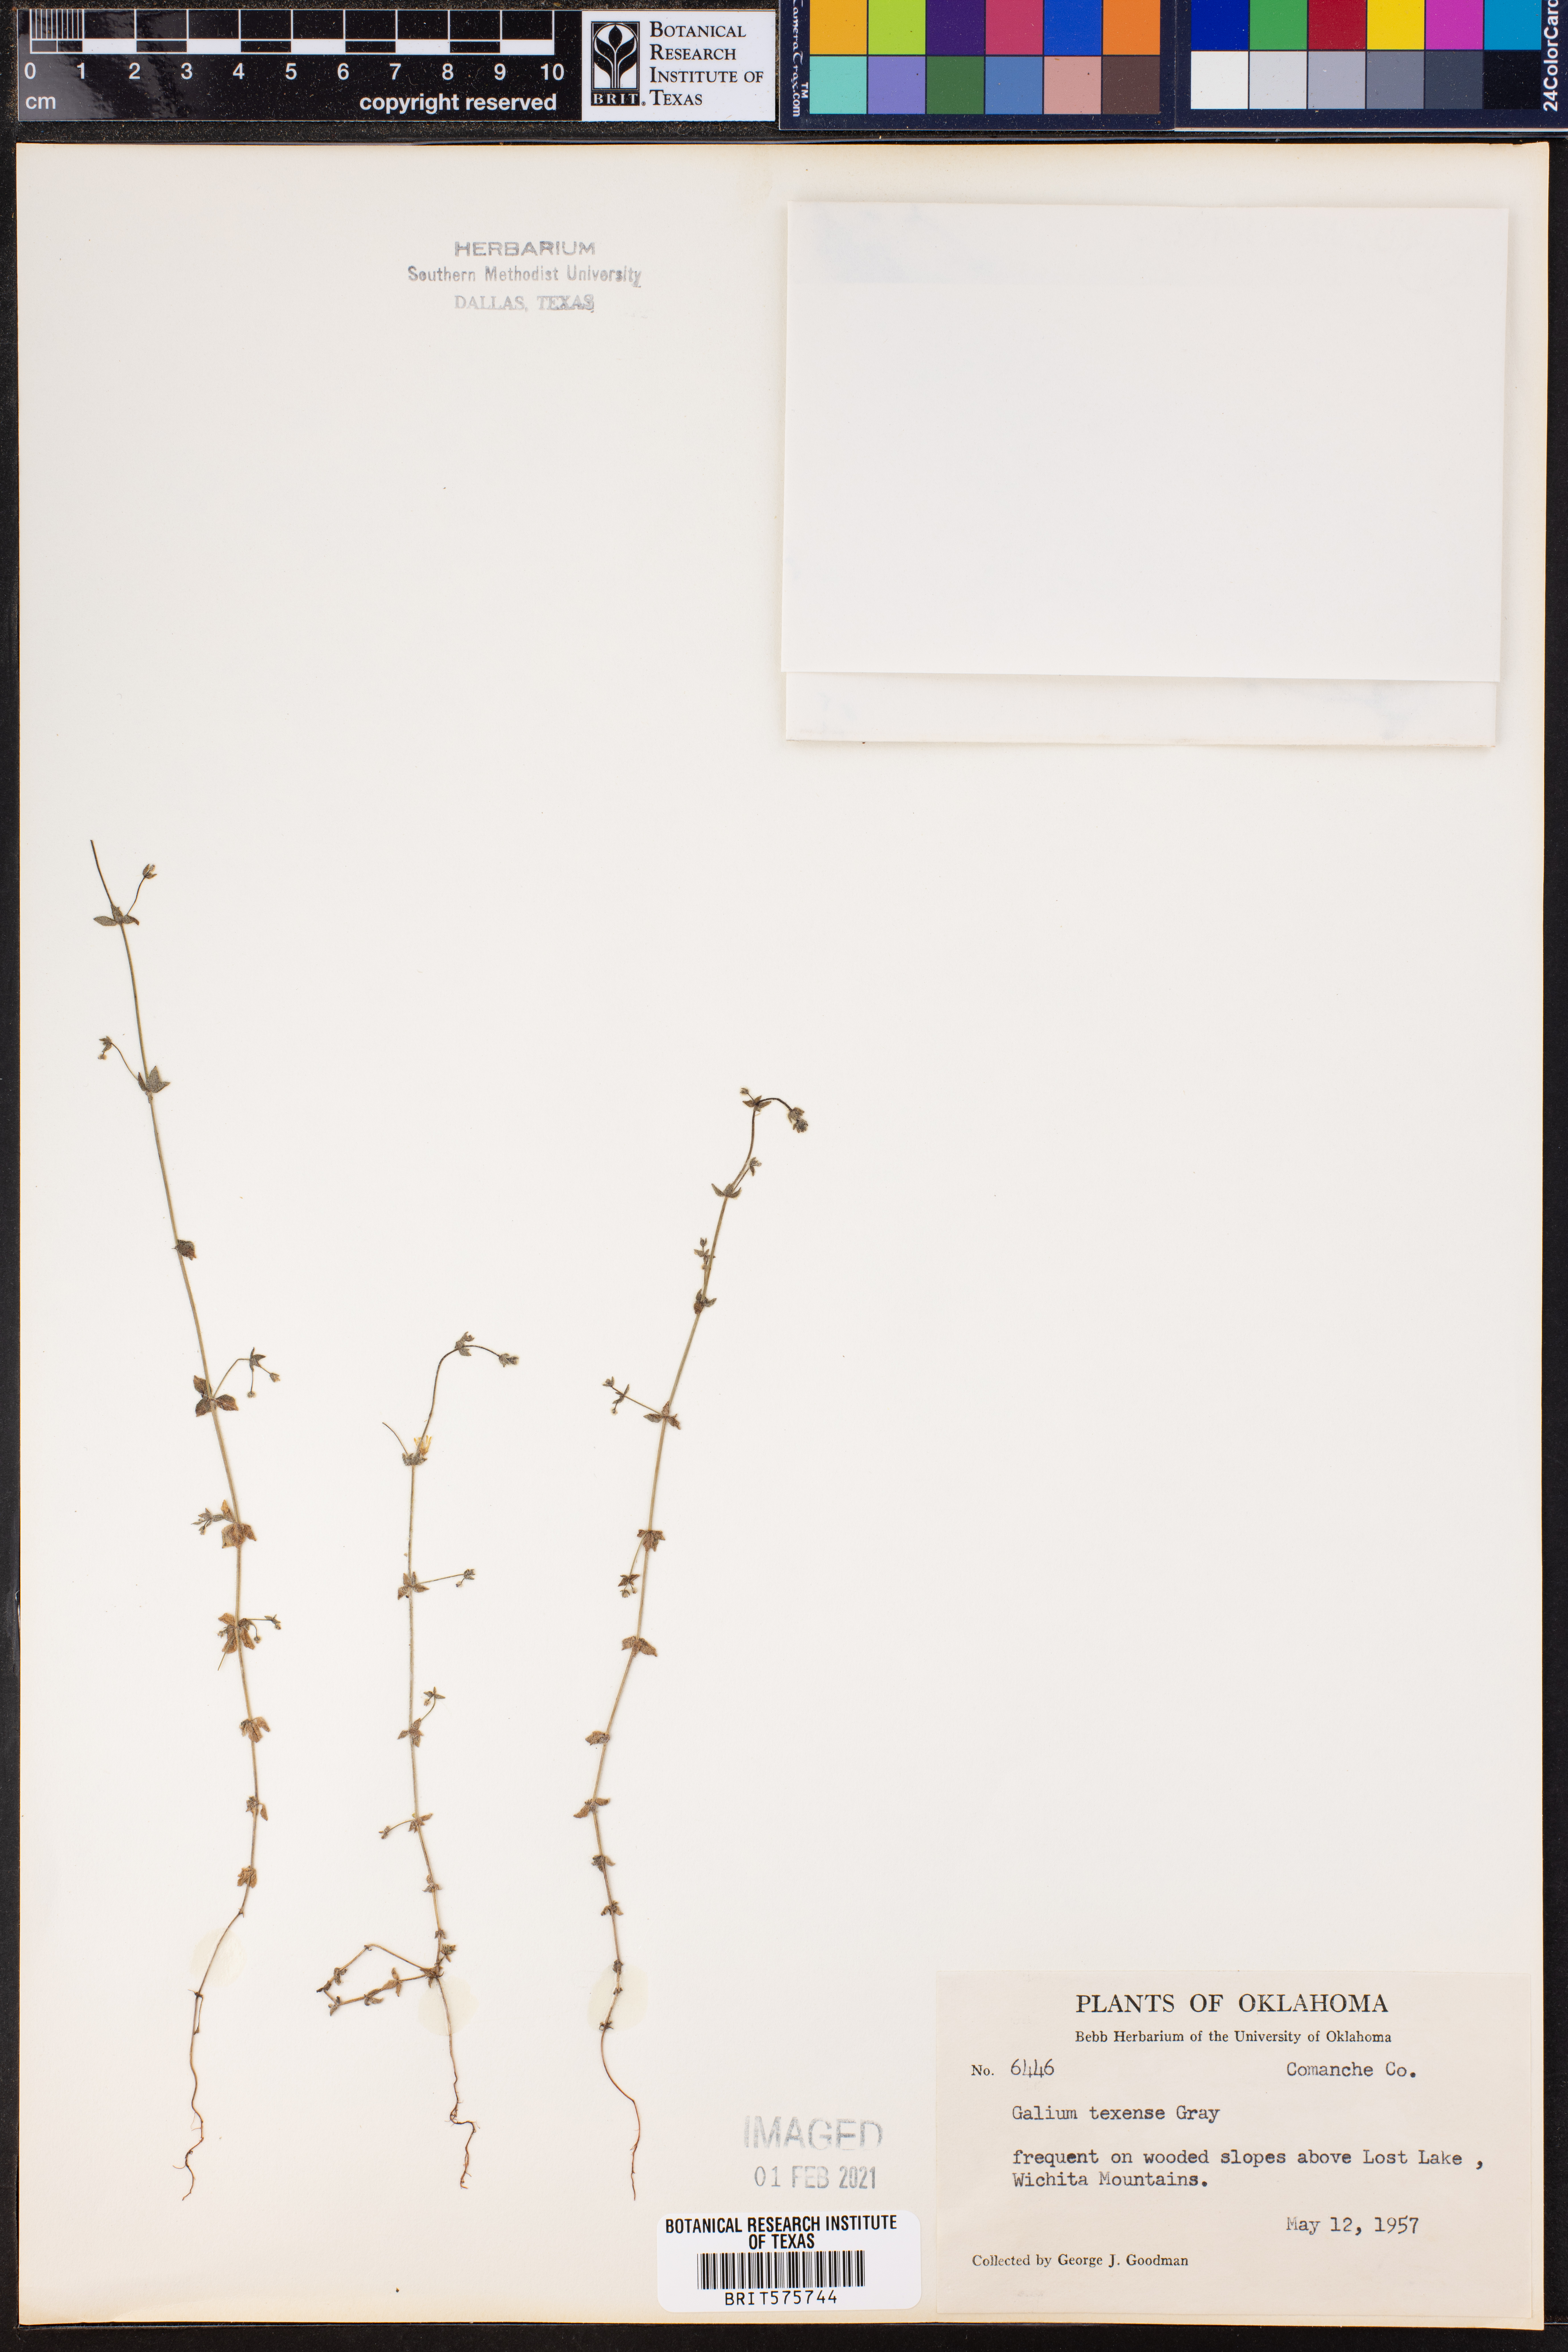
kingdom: Plantae
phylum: Tracheophyta
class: Magnoliopsida
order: Gentianales
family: Rubiaceae
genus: Galium
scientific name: Galium texense
